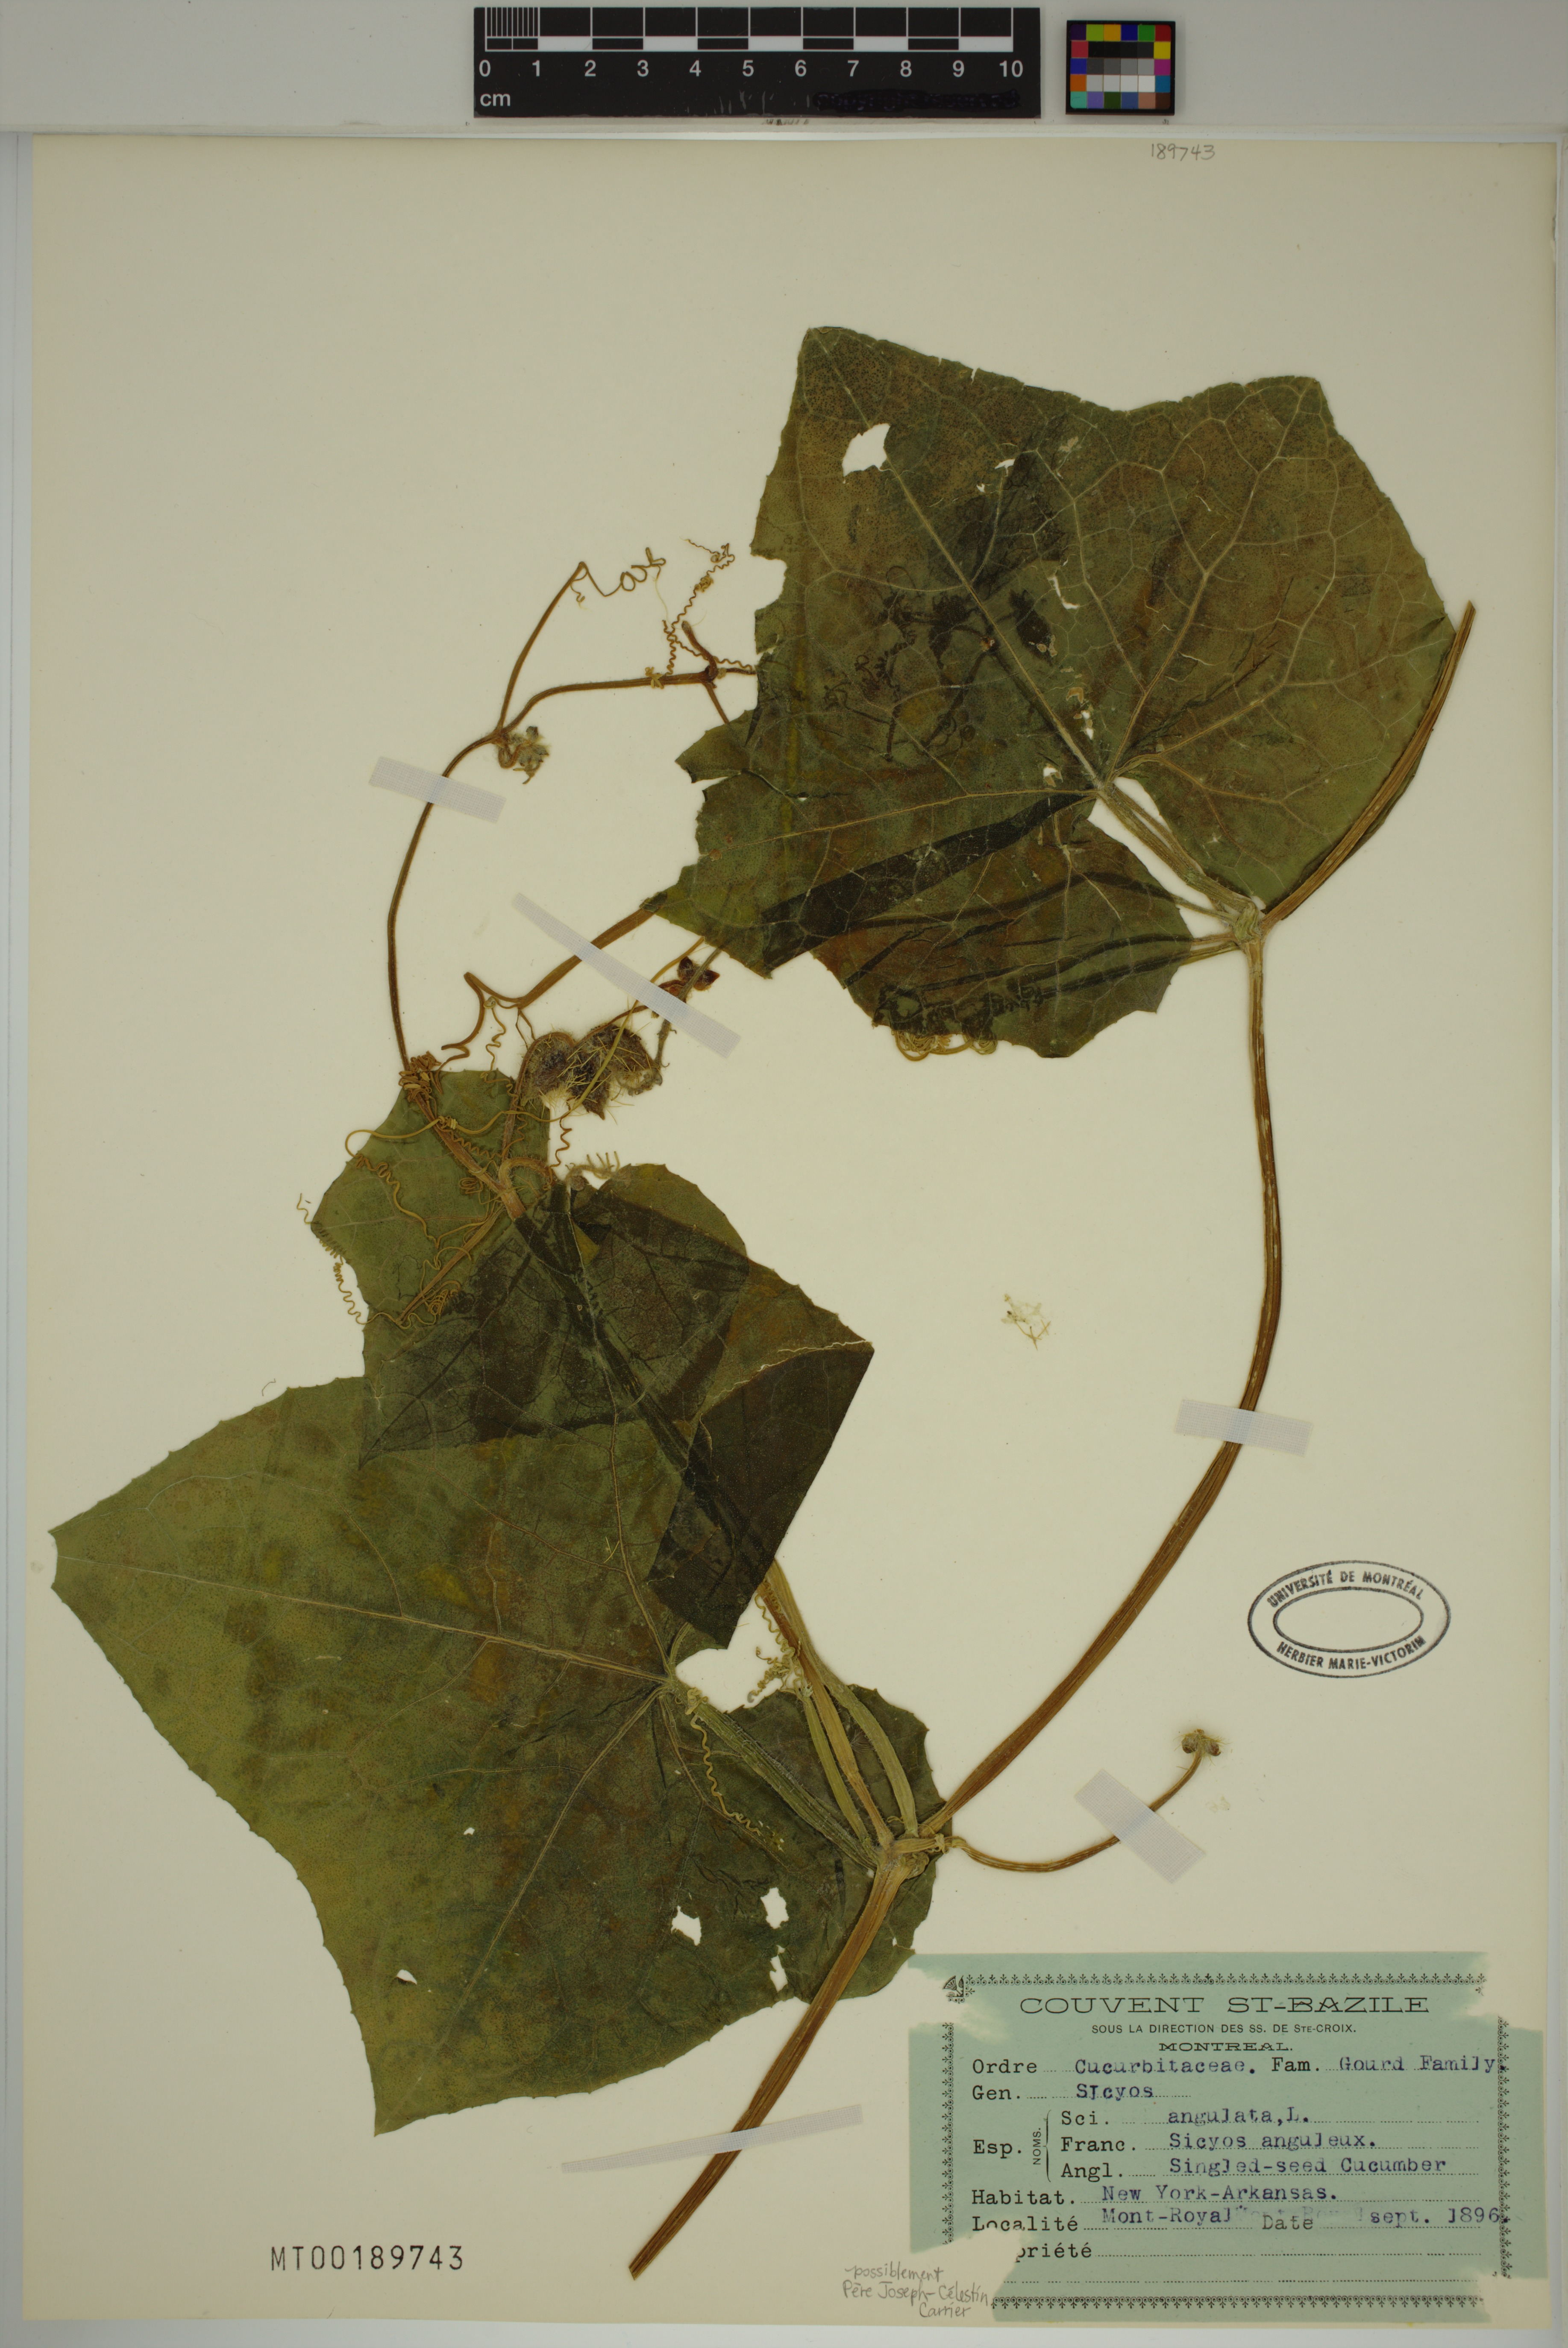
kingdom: Plantae
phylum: Tracheophyta
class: Magnoliopsida
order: Cucurbitales
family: Cucurbitaceae
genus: Sicyos
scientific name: Sicyos angulatus
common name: Angled burr cucumber
